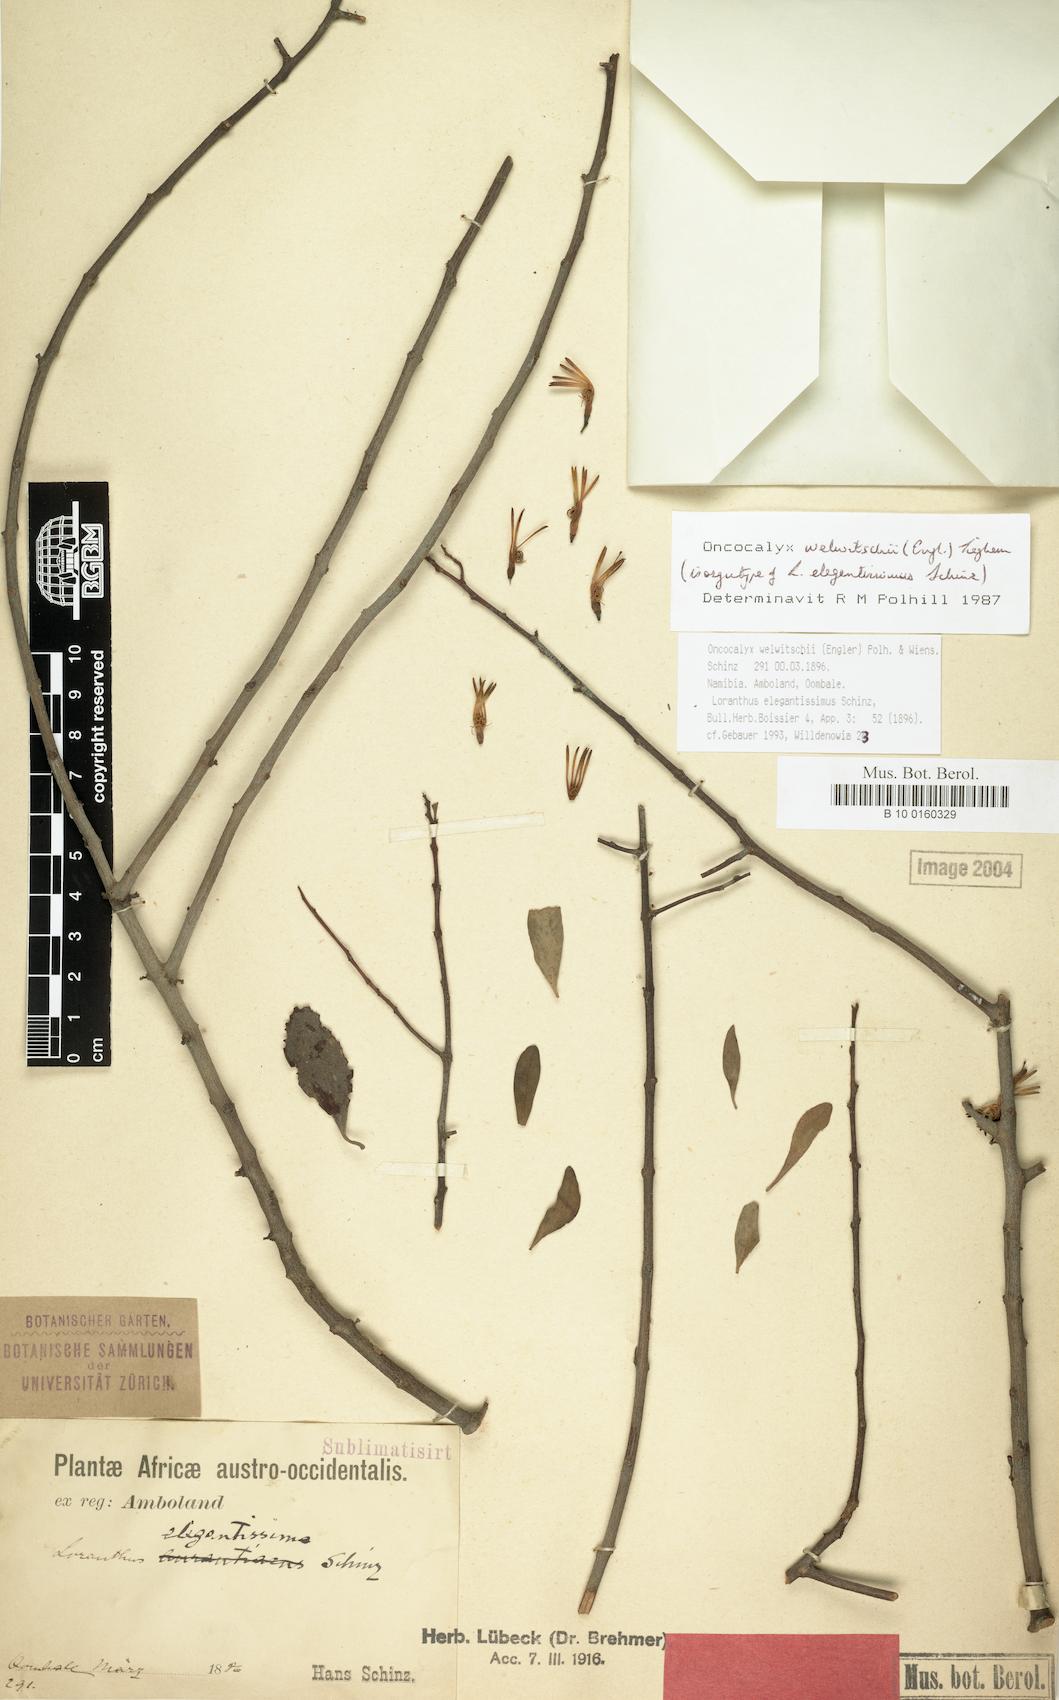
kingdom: Plantae
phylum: Tracheophyta
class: Magnoliopsida
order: Santalales
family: Loranthaceae
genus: Loranthella
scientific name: Loranthella welwitschii
